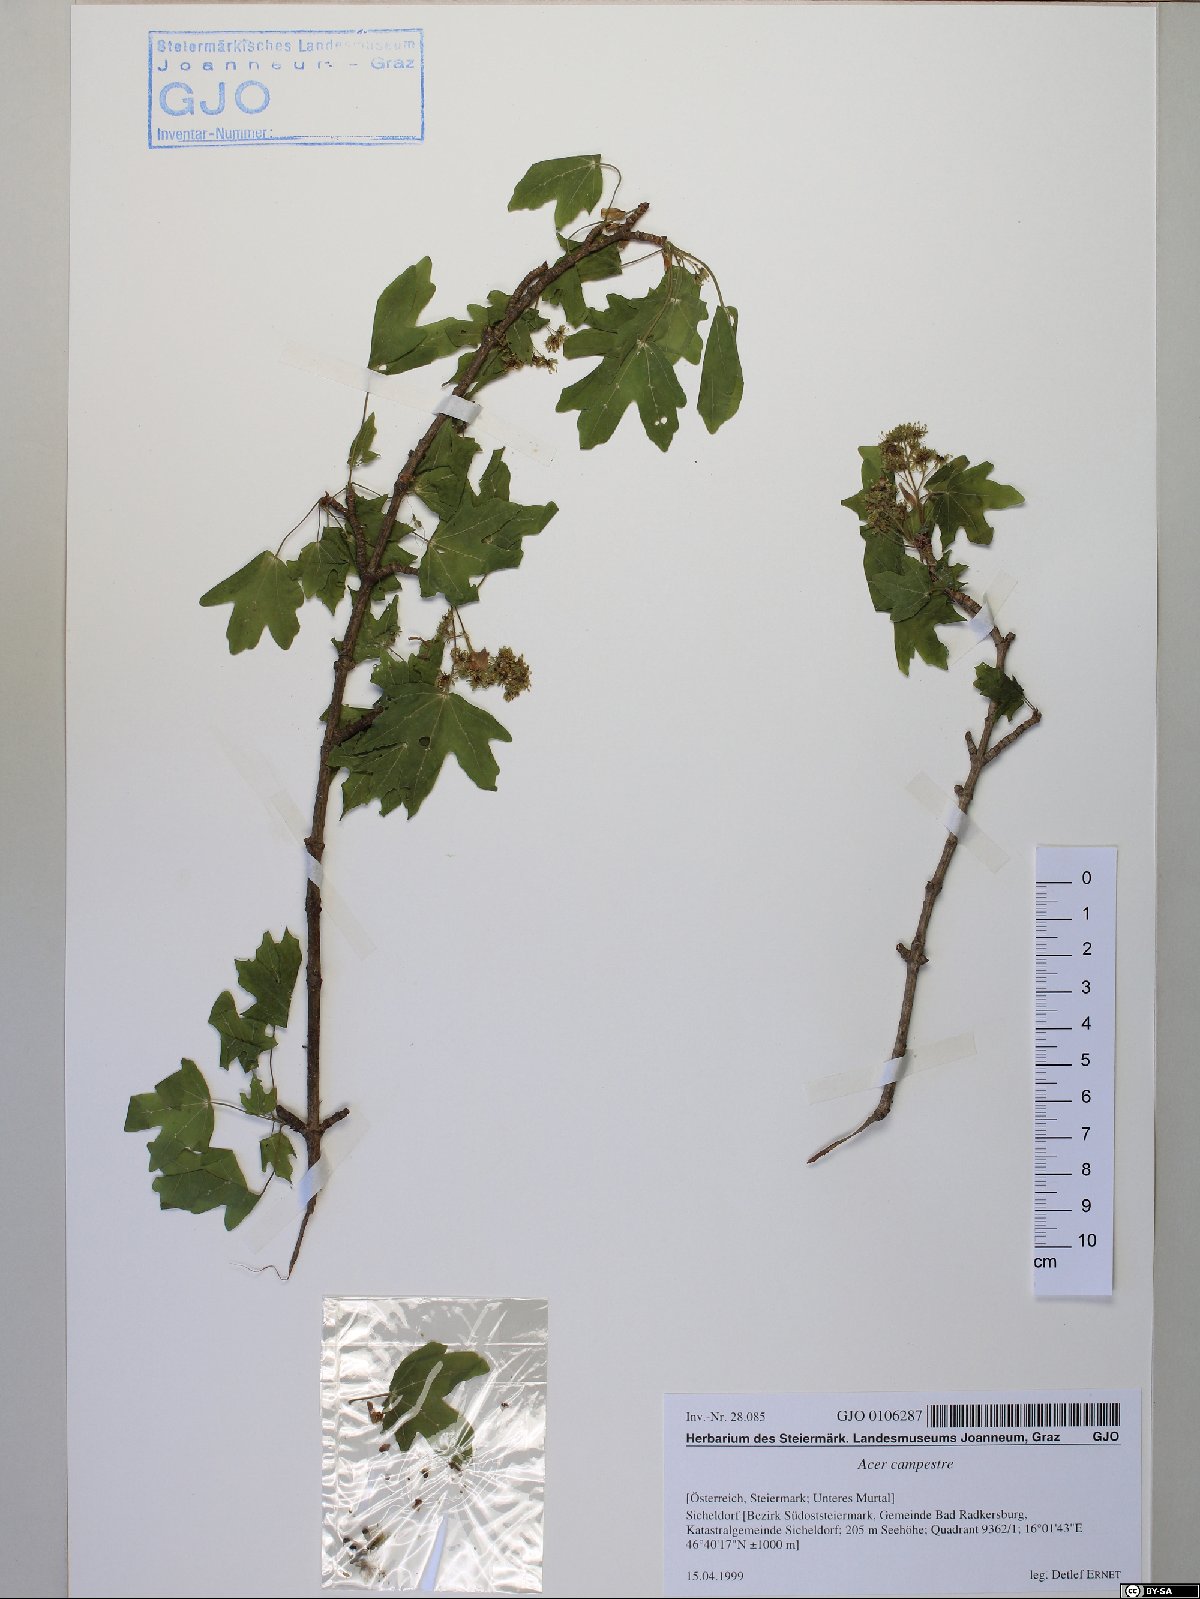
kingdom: Plantae
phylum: Tracheophyta
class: Magnoliopsida
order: Sapindales
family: Sapindaceae
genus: Acer
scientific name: Acer campestre
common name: Field maple
